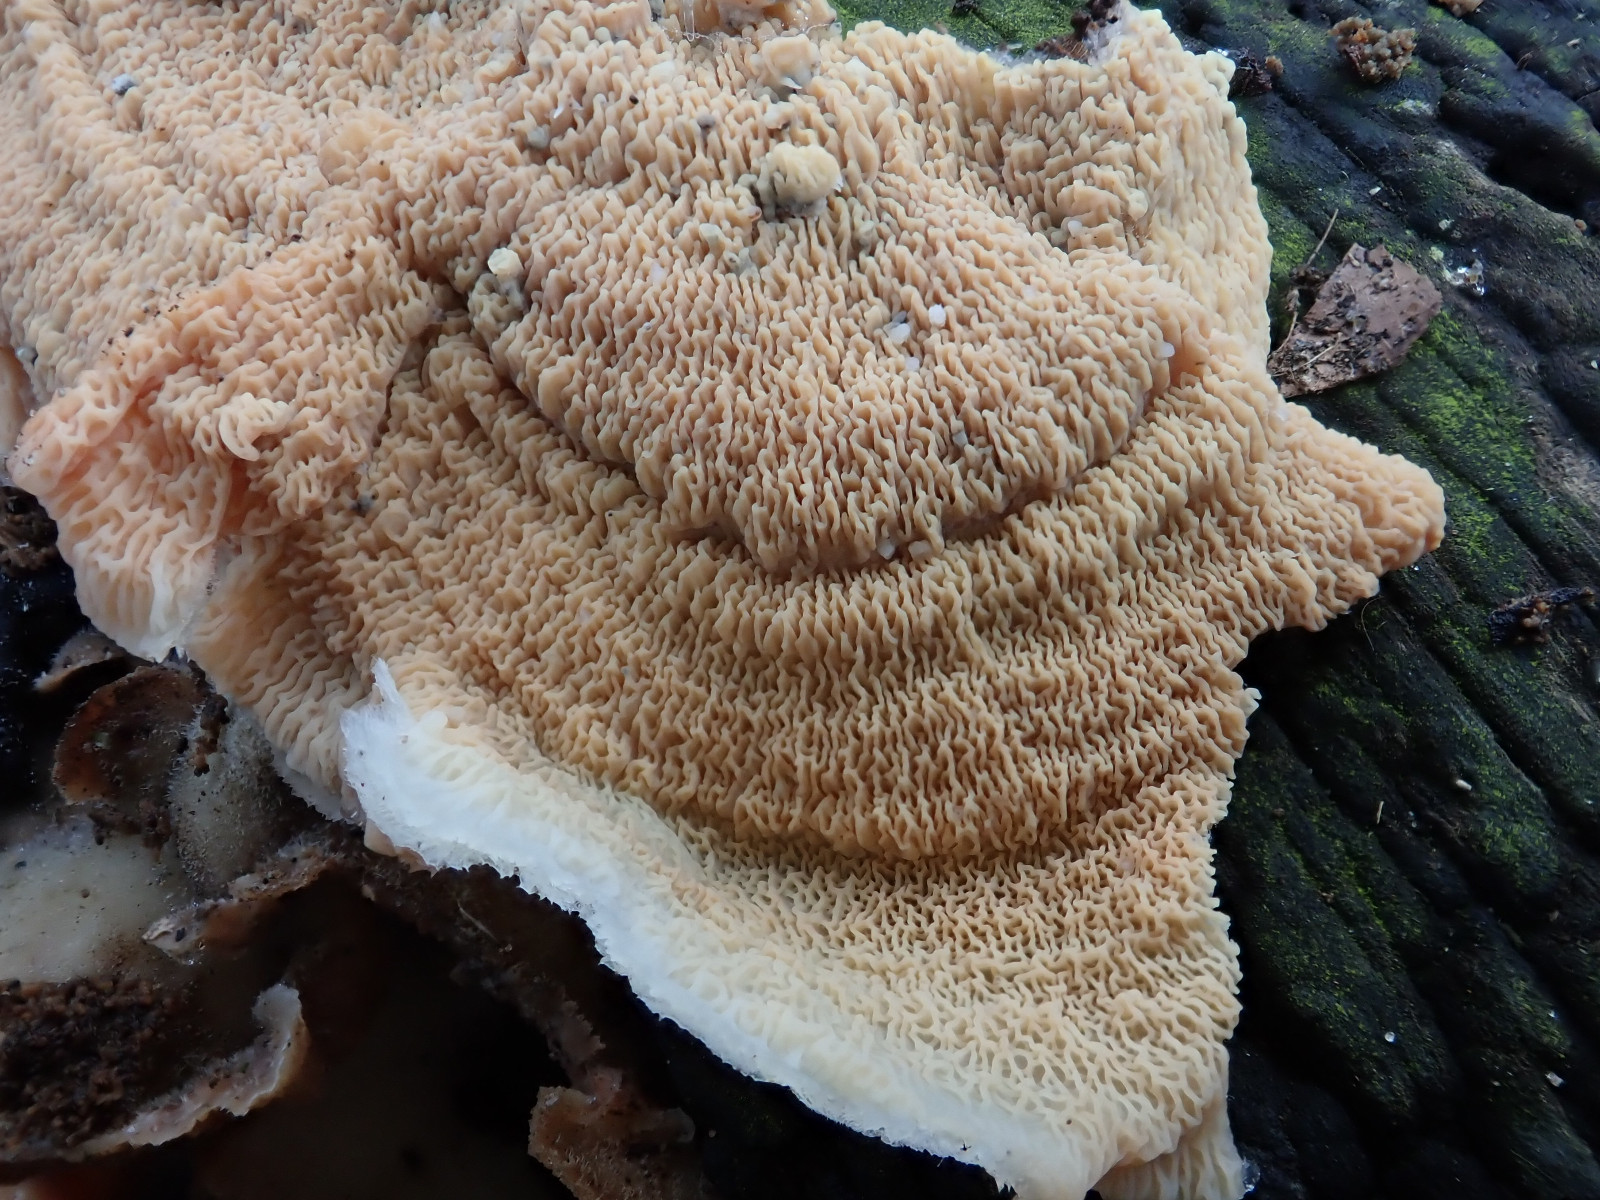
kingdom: Fungi
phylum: Basidiomycota
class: Agaricomycetes
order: Polyporales
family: Meruliaceae
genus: Phlebia
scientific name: Phlebia tremellosa
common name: bævrende åresvamp
